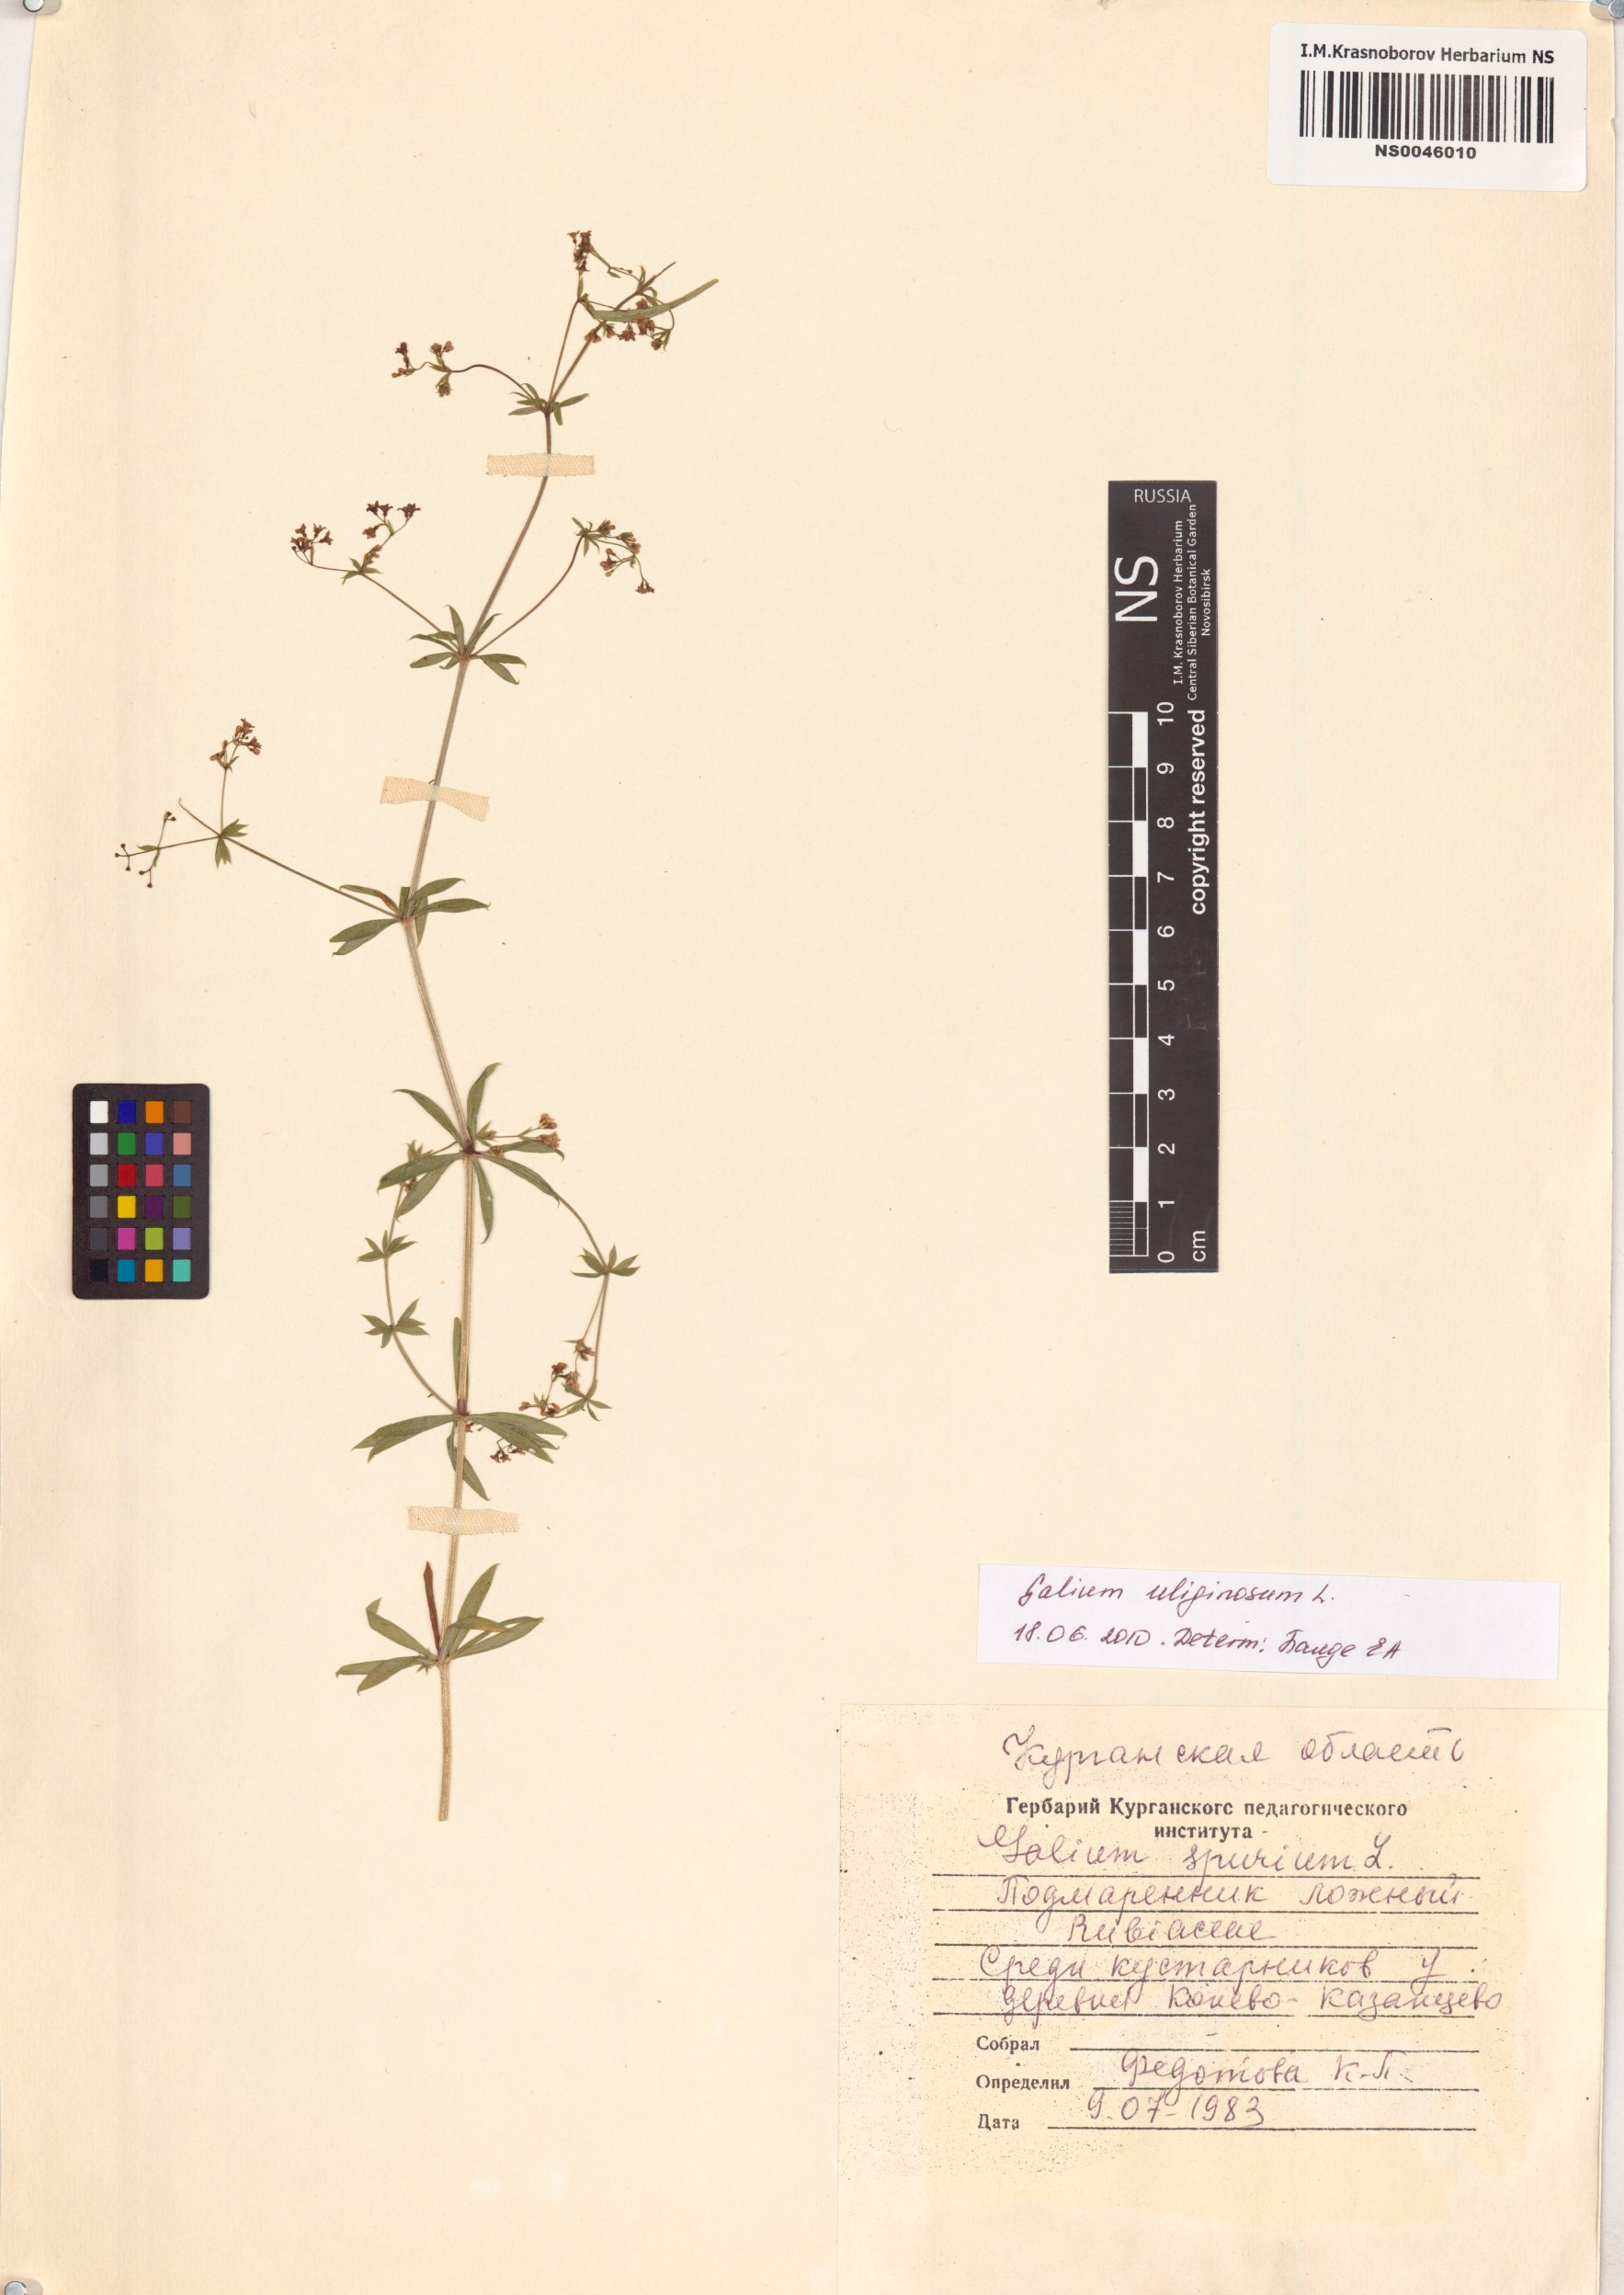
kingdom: Plantae
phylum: Tracheophyta
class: Magnoliopsida
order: Gentianales
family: Rubiaceae
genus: Galium
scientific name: Galium uliginosum
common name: Fen bedstraw
